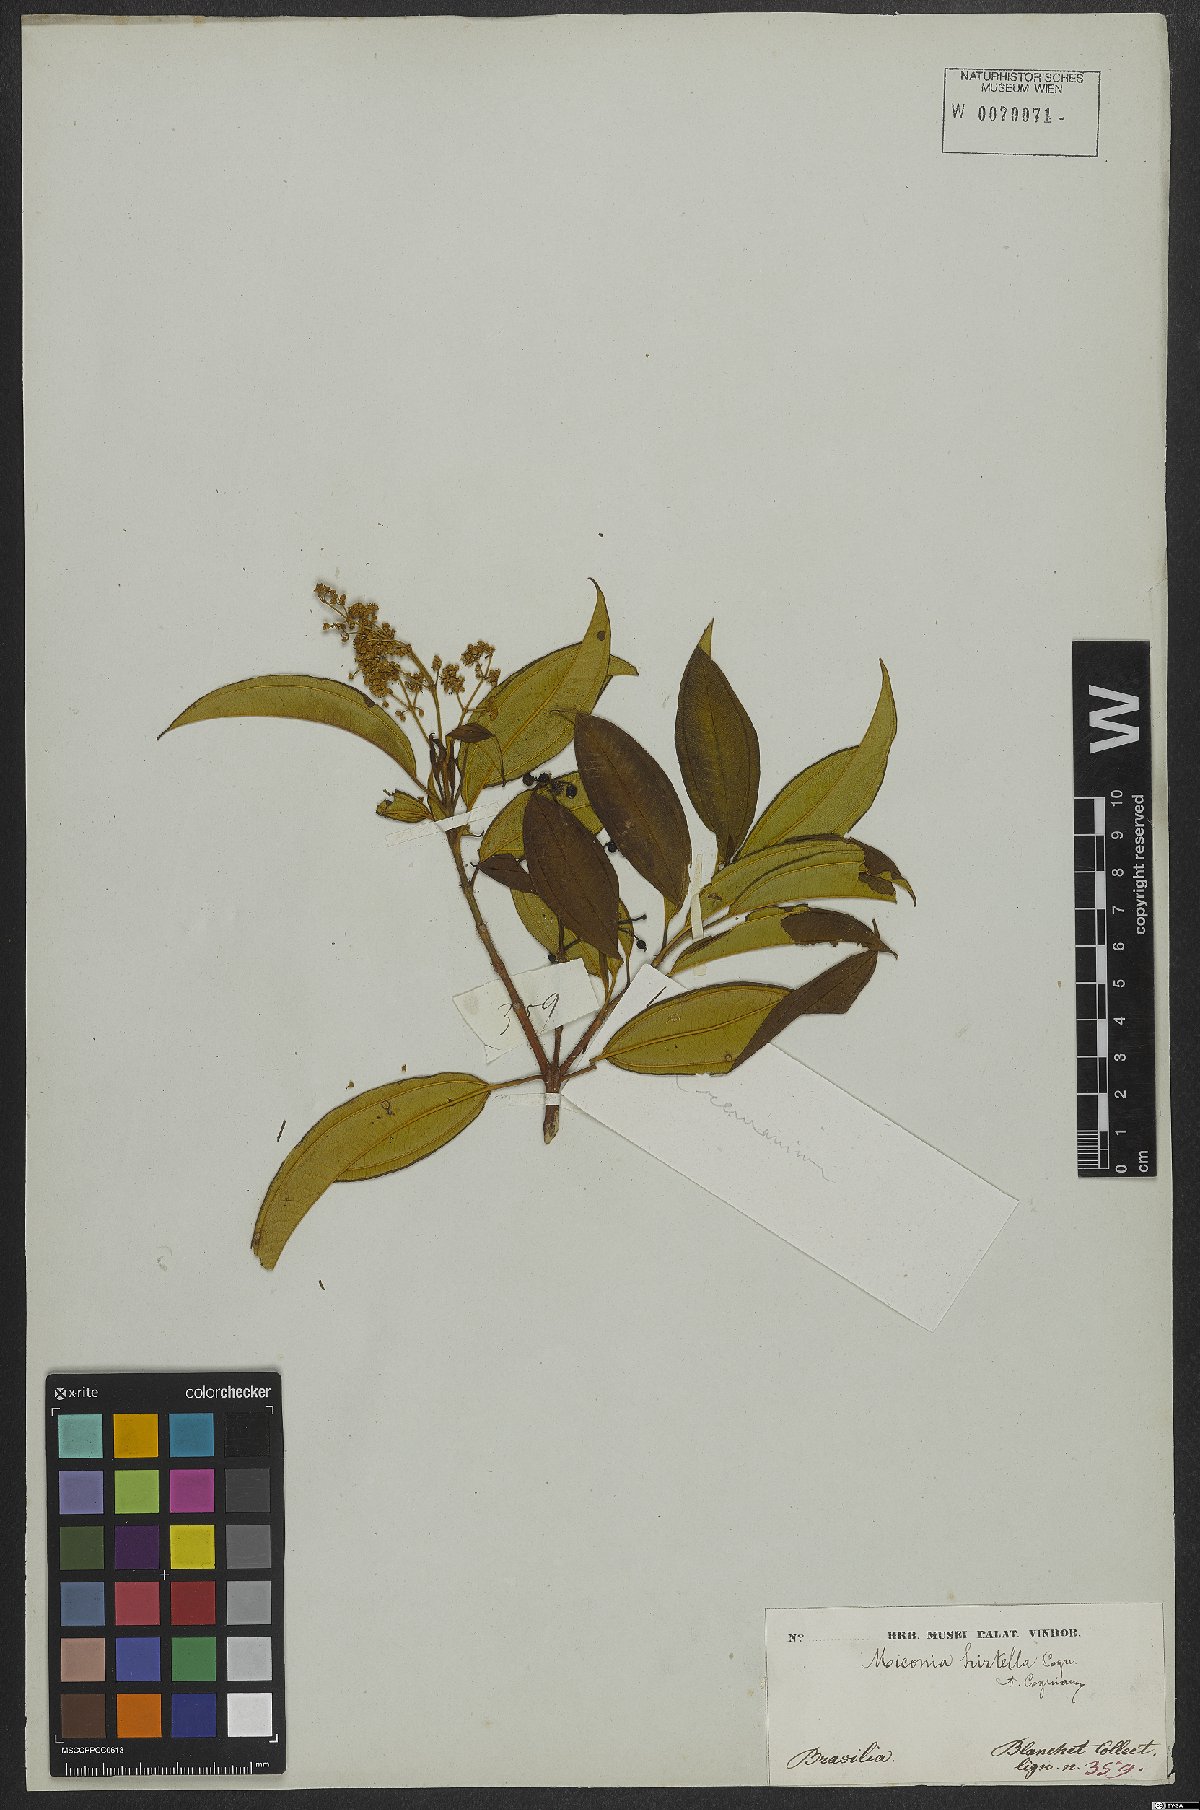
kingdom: Plantae
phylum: Tracheophyta
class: Magnoliopsida
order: Myrtales
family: Melastomataceae
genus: Miconia
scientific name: Miconia hirta
